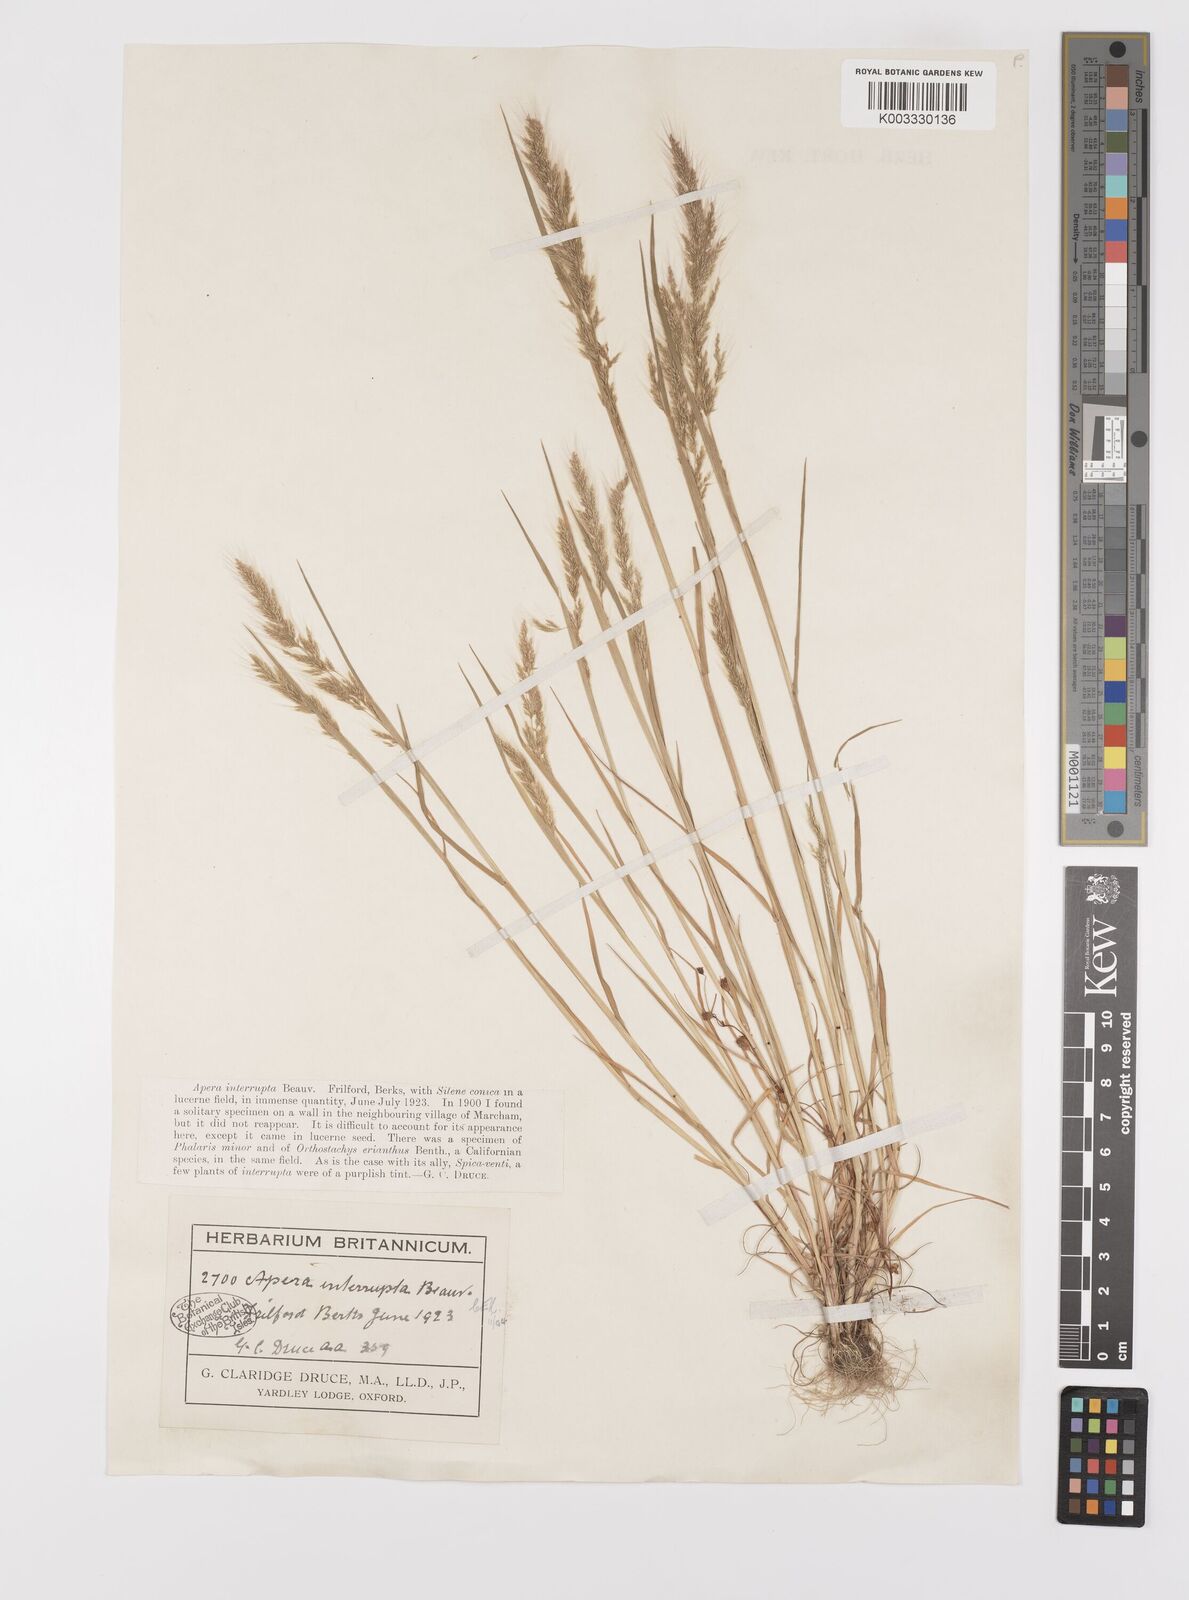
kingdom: Plantae
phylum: Tracheophyta
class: Liliopsida
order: Poales
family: Poaceae
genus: Apera
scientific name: Apera interrupta
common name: Dense silky-bent
